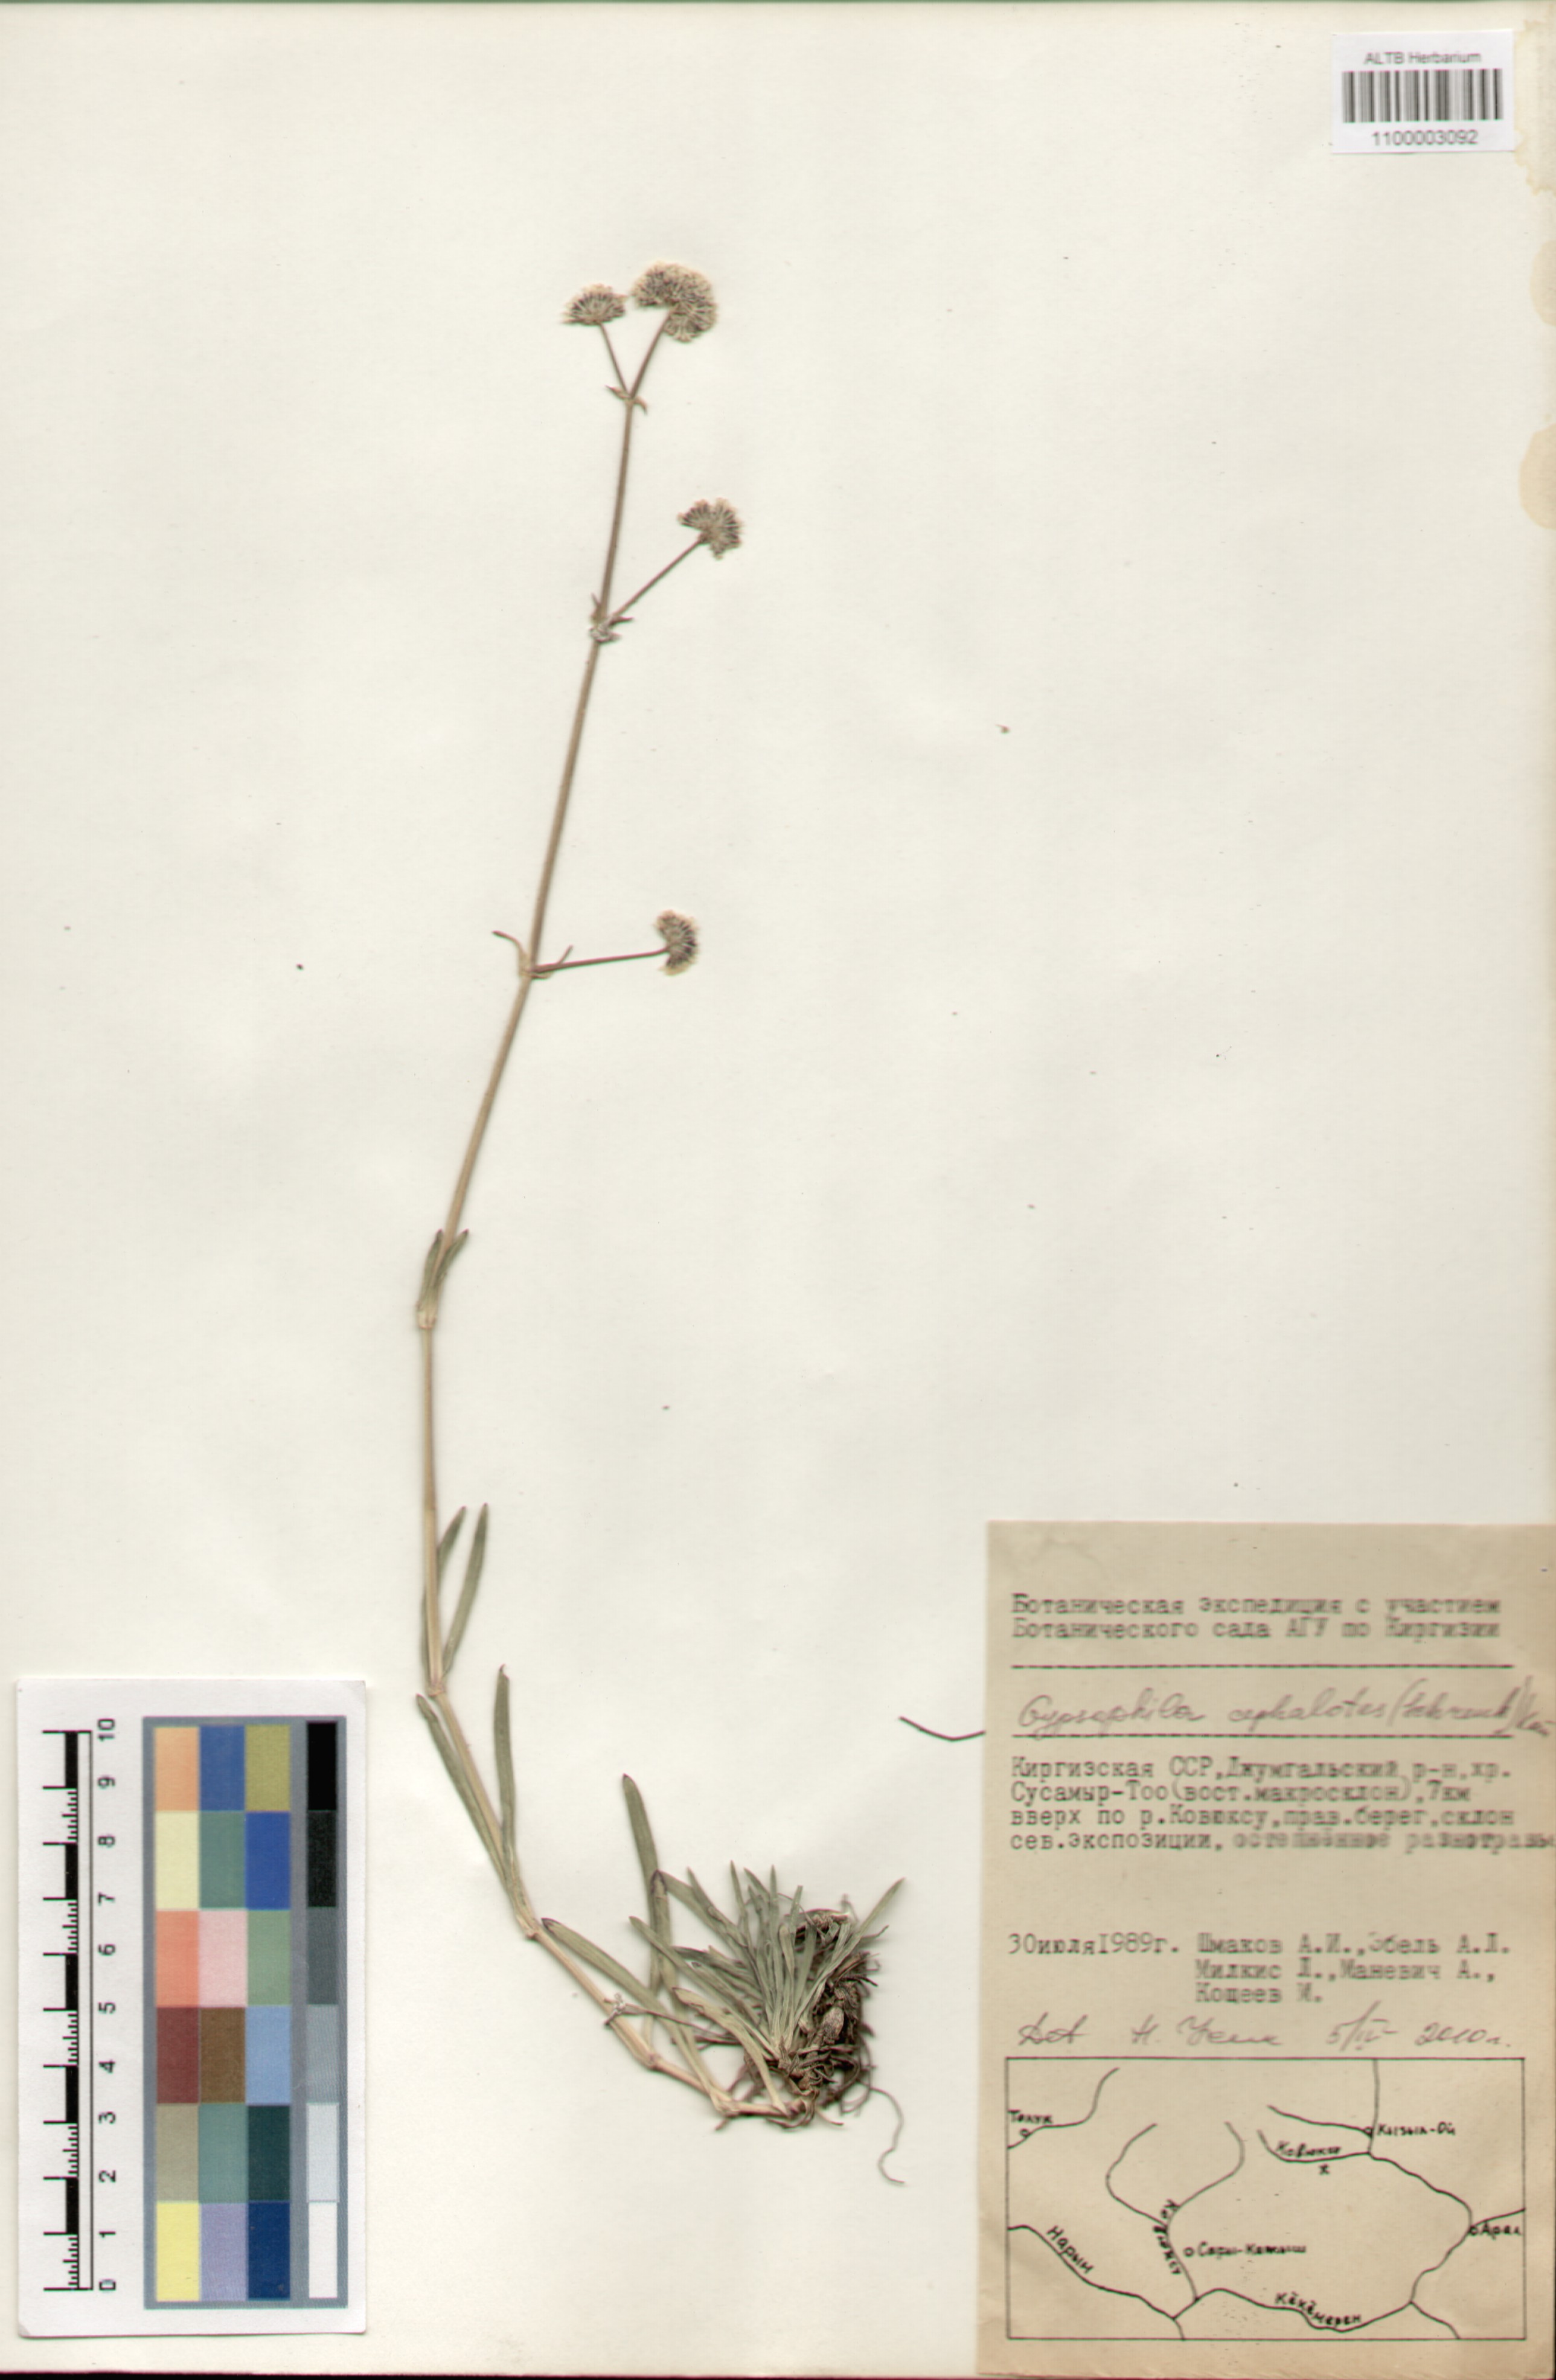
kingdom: Plantae
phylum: Tracheophyta
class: Magnoliopsida
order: Caryophyllales
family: Caryophyllaceae
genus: Gypsophila
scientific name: Gypsophila cephalotes
